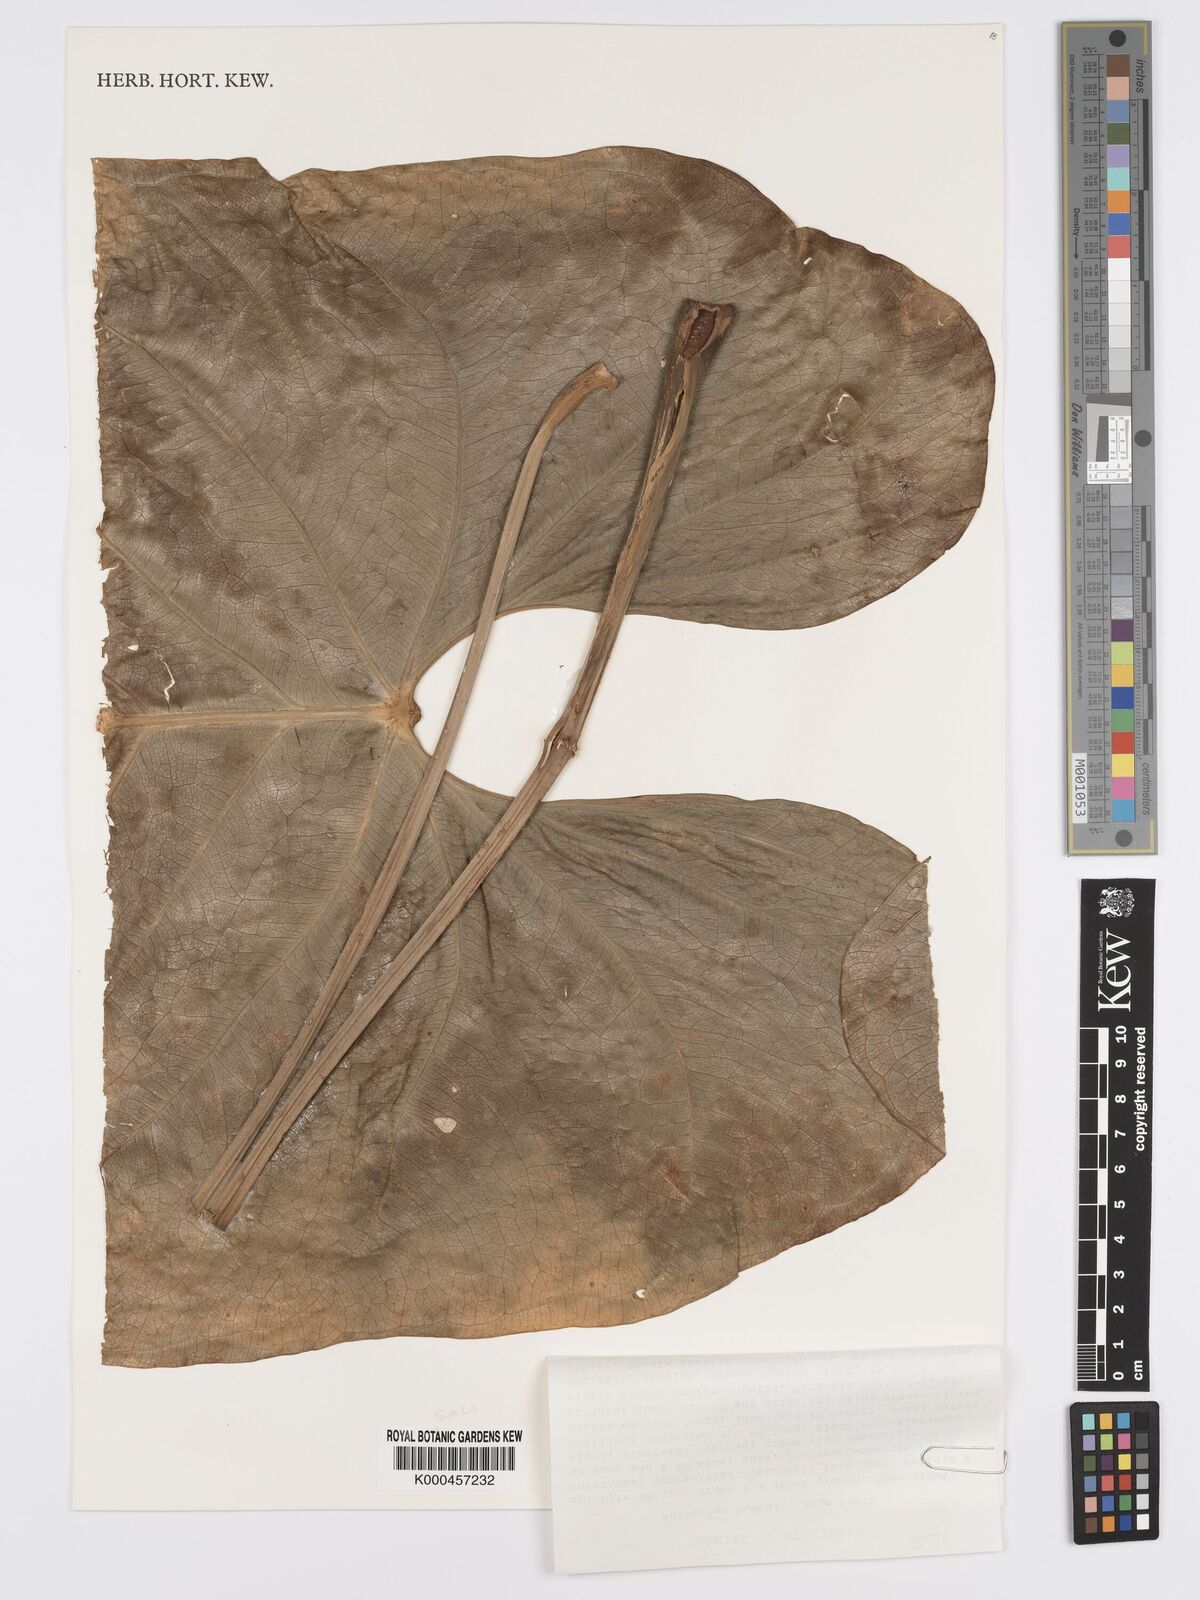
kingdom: Plantae
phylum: Tracheophyta
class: Liliopsida
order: Alismatales
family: Araceae
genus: Anthurium
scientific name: Anthurium
